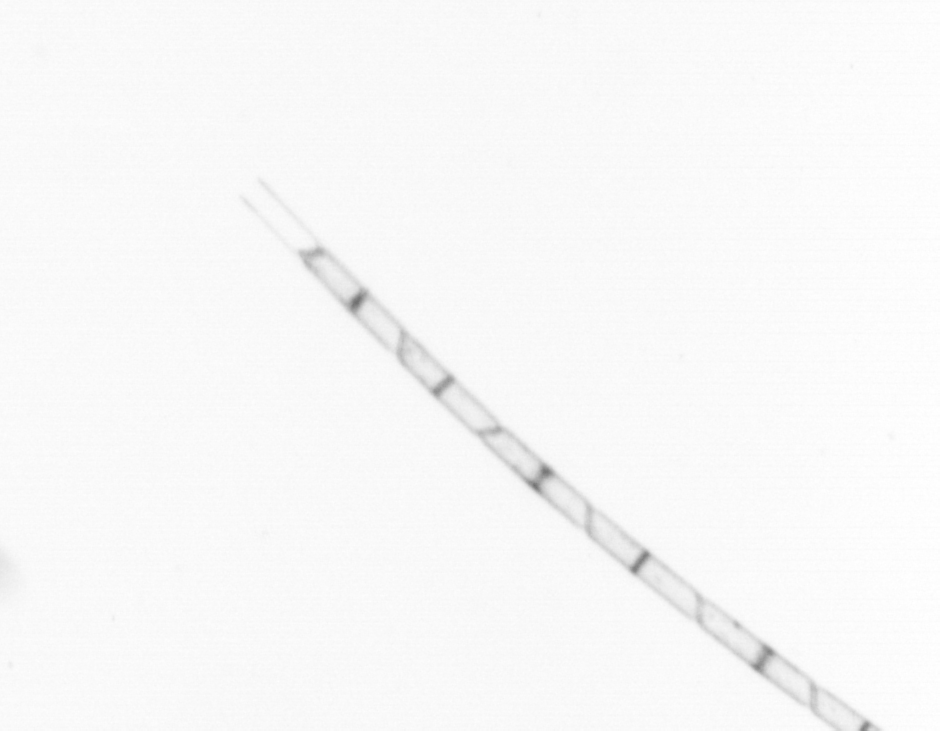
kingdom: Chromista
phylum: Ochrophyta
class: Bacillariophyceae
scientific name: Bacillariophyceae
